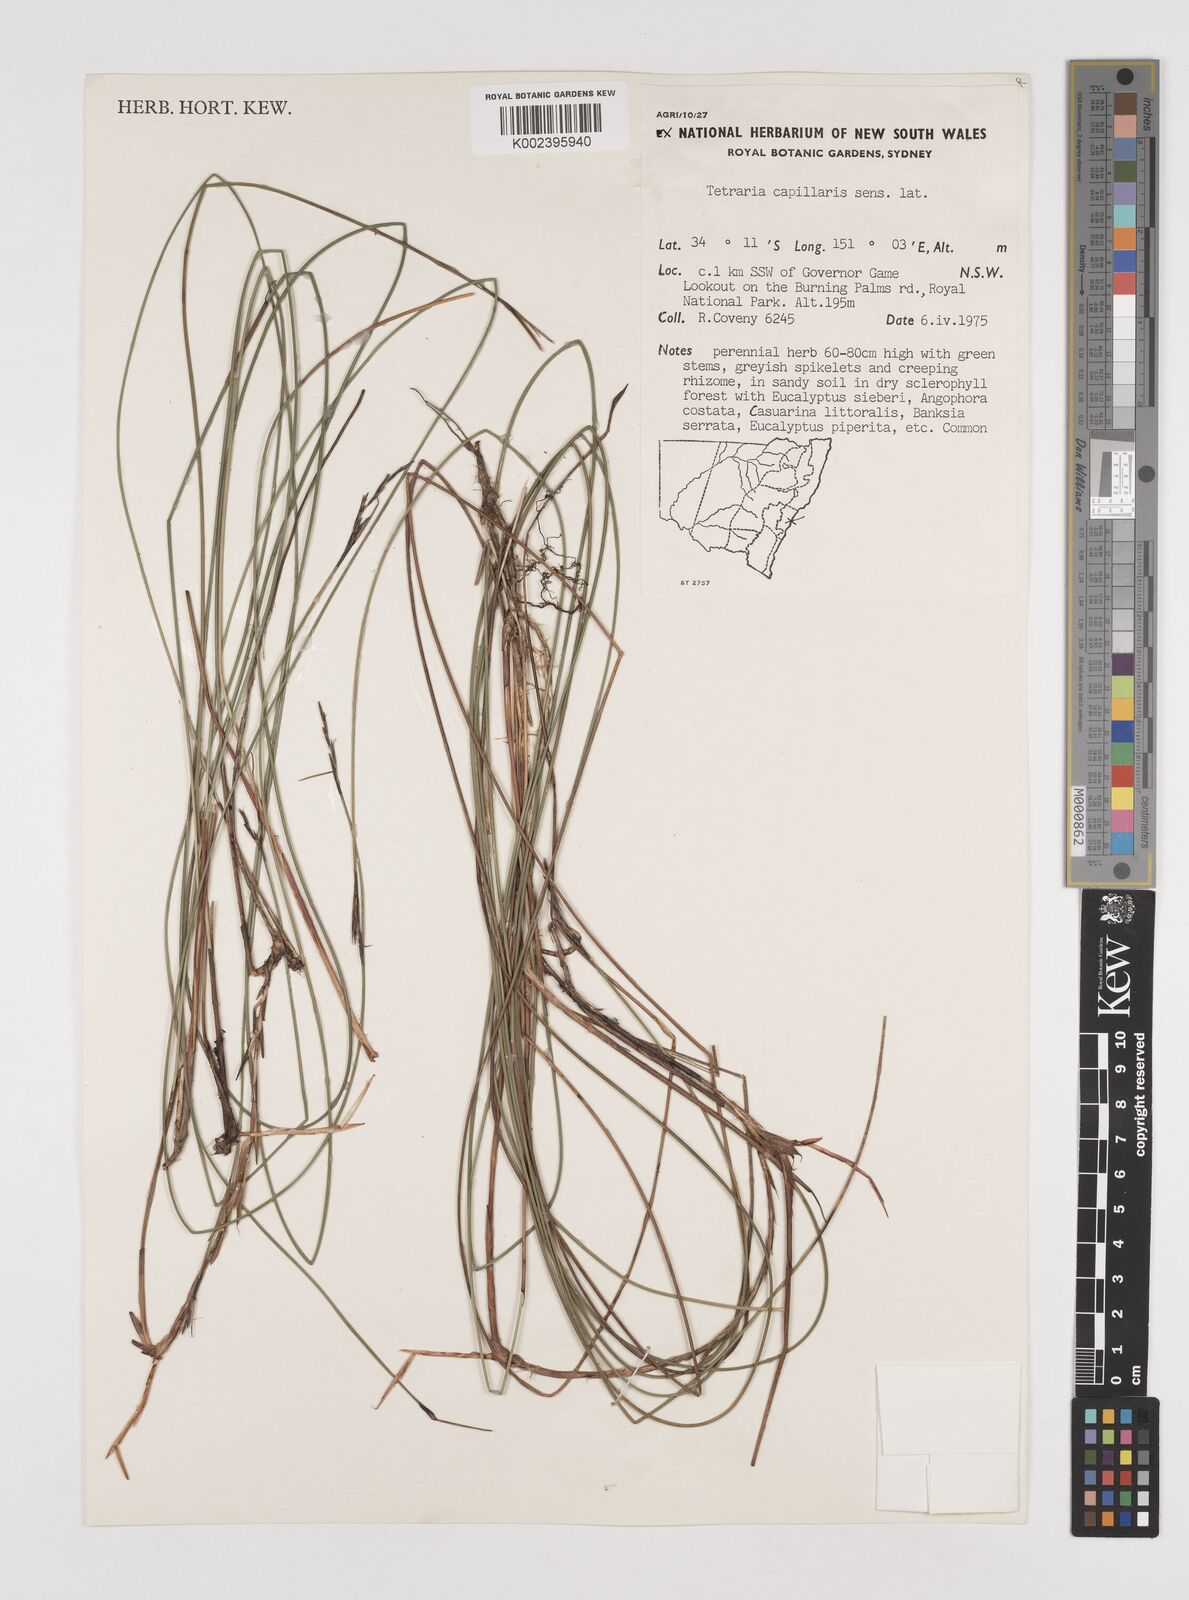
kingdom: Plantae
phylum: Tracheophyta
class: Liliopsida
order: Poales
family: Cyperaceae
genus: Tetraria
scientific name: Tetraria capillaris
